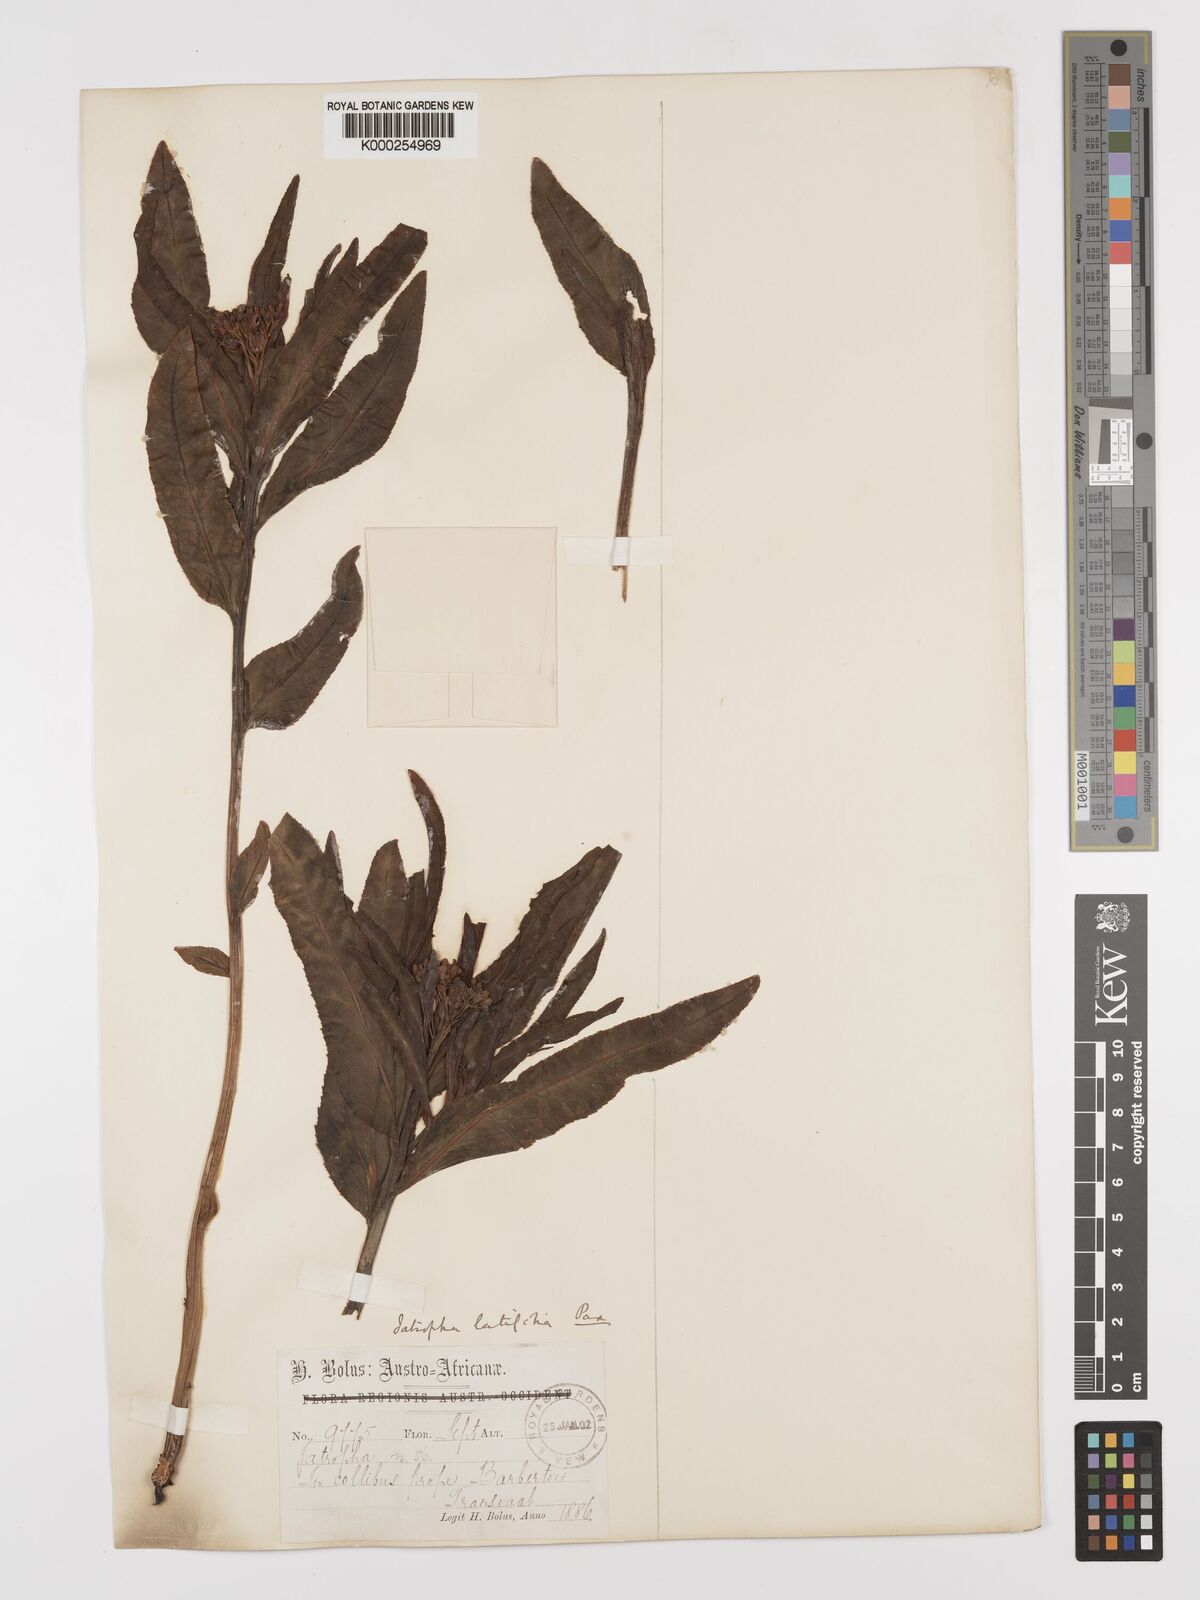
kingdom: Plantae
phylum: Tracheophyta
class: Magnoliopsida
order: Malpighiales
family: Euphorbiaceae
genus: Jatropha
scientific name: Jatropha latifolia
